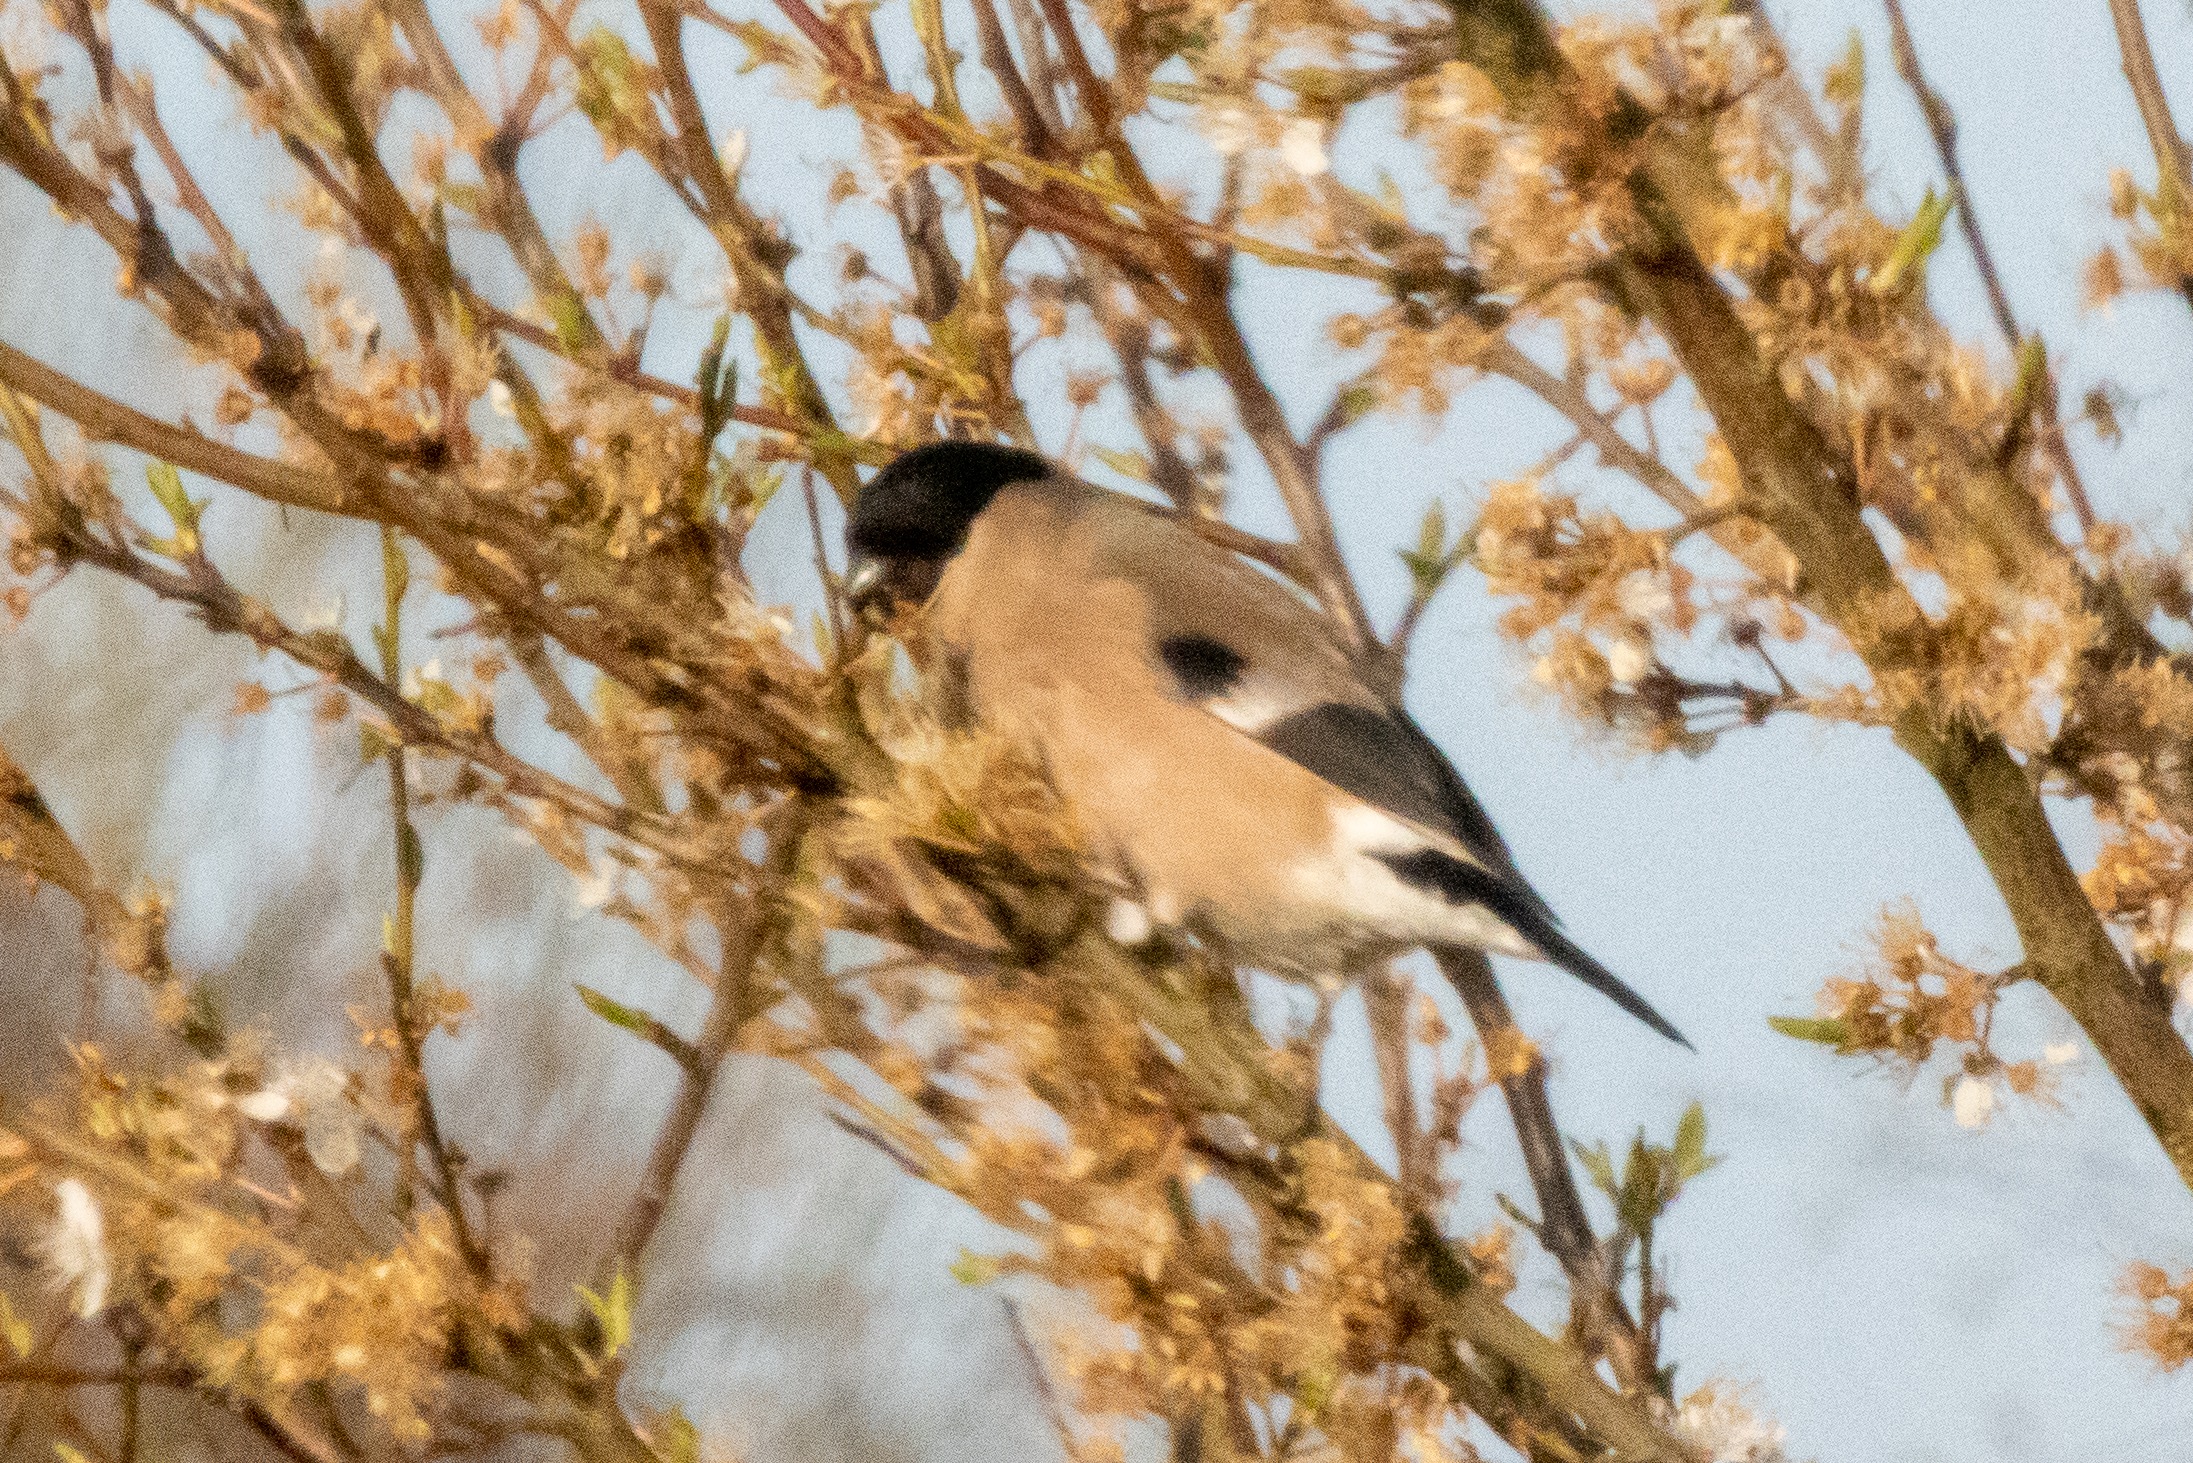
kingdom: Animalia
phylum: Chordata
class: Aves
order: Passeriformes
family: Fringillidae
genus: Pyrrhula
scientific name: Pyrrhula pyrrhula
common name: Dompap
